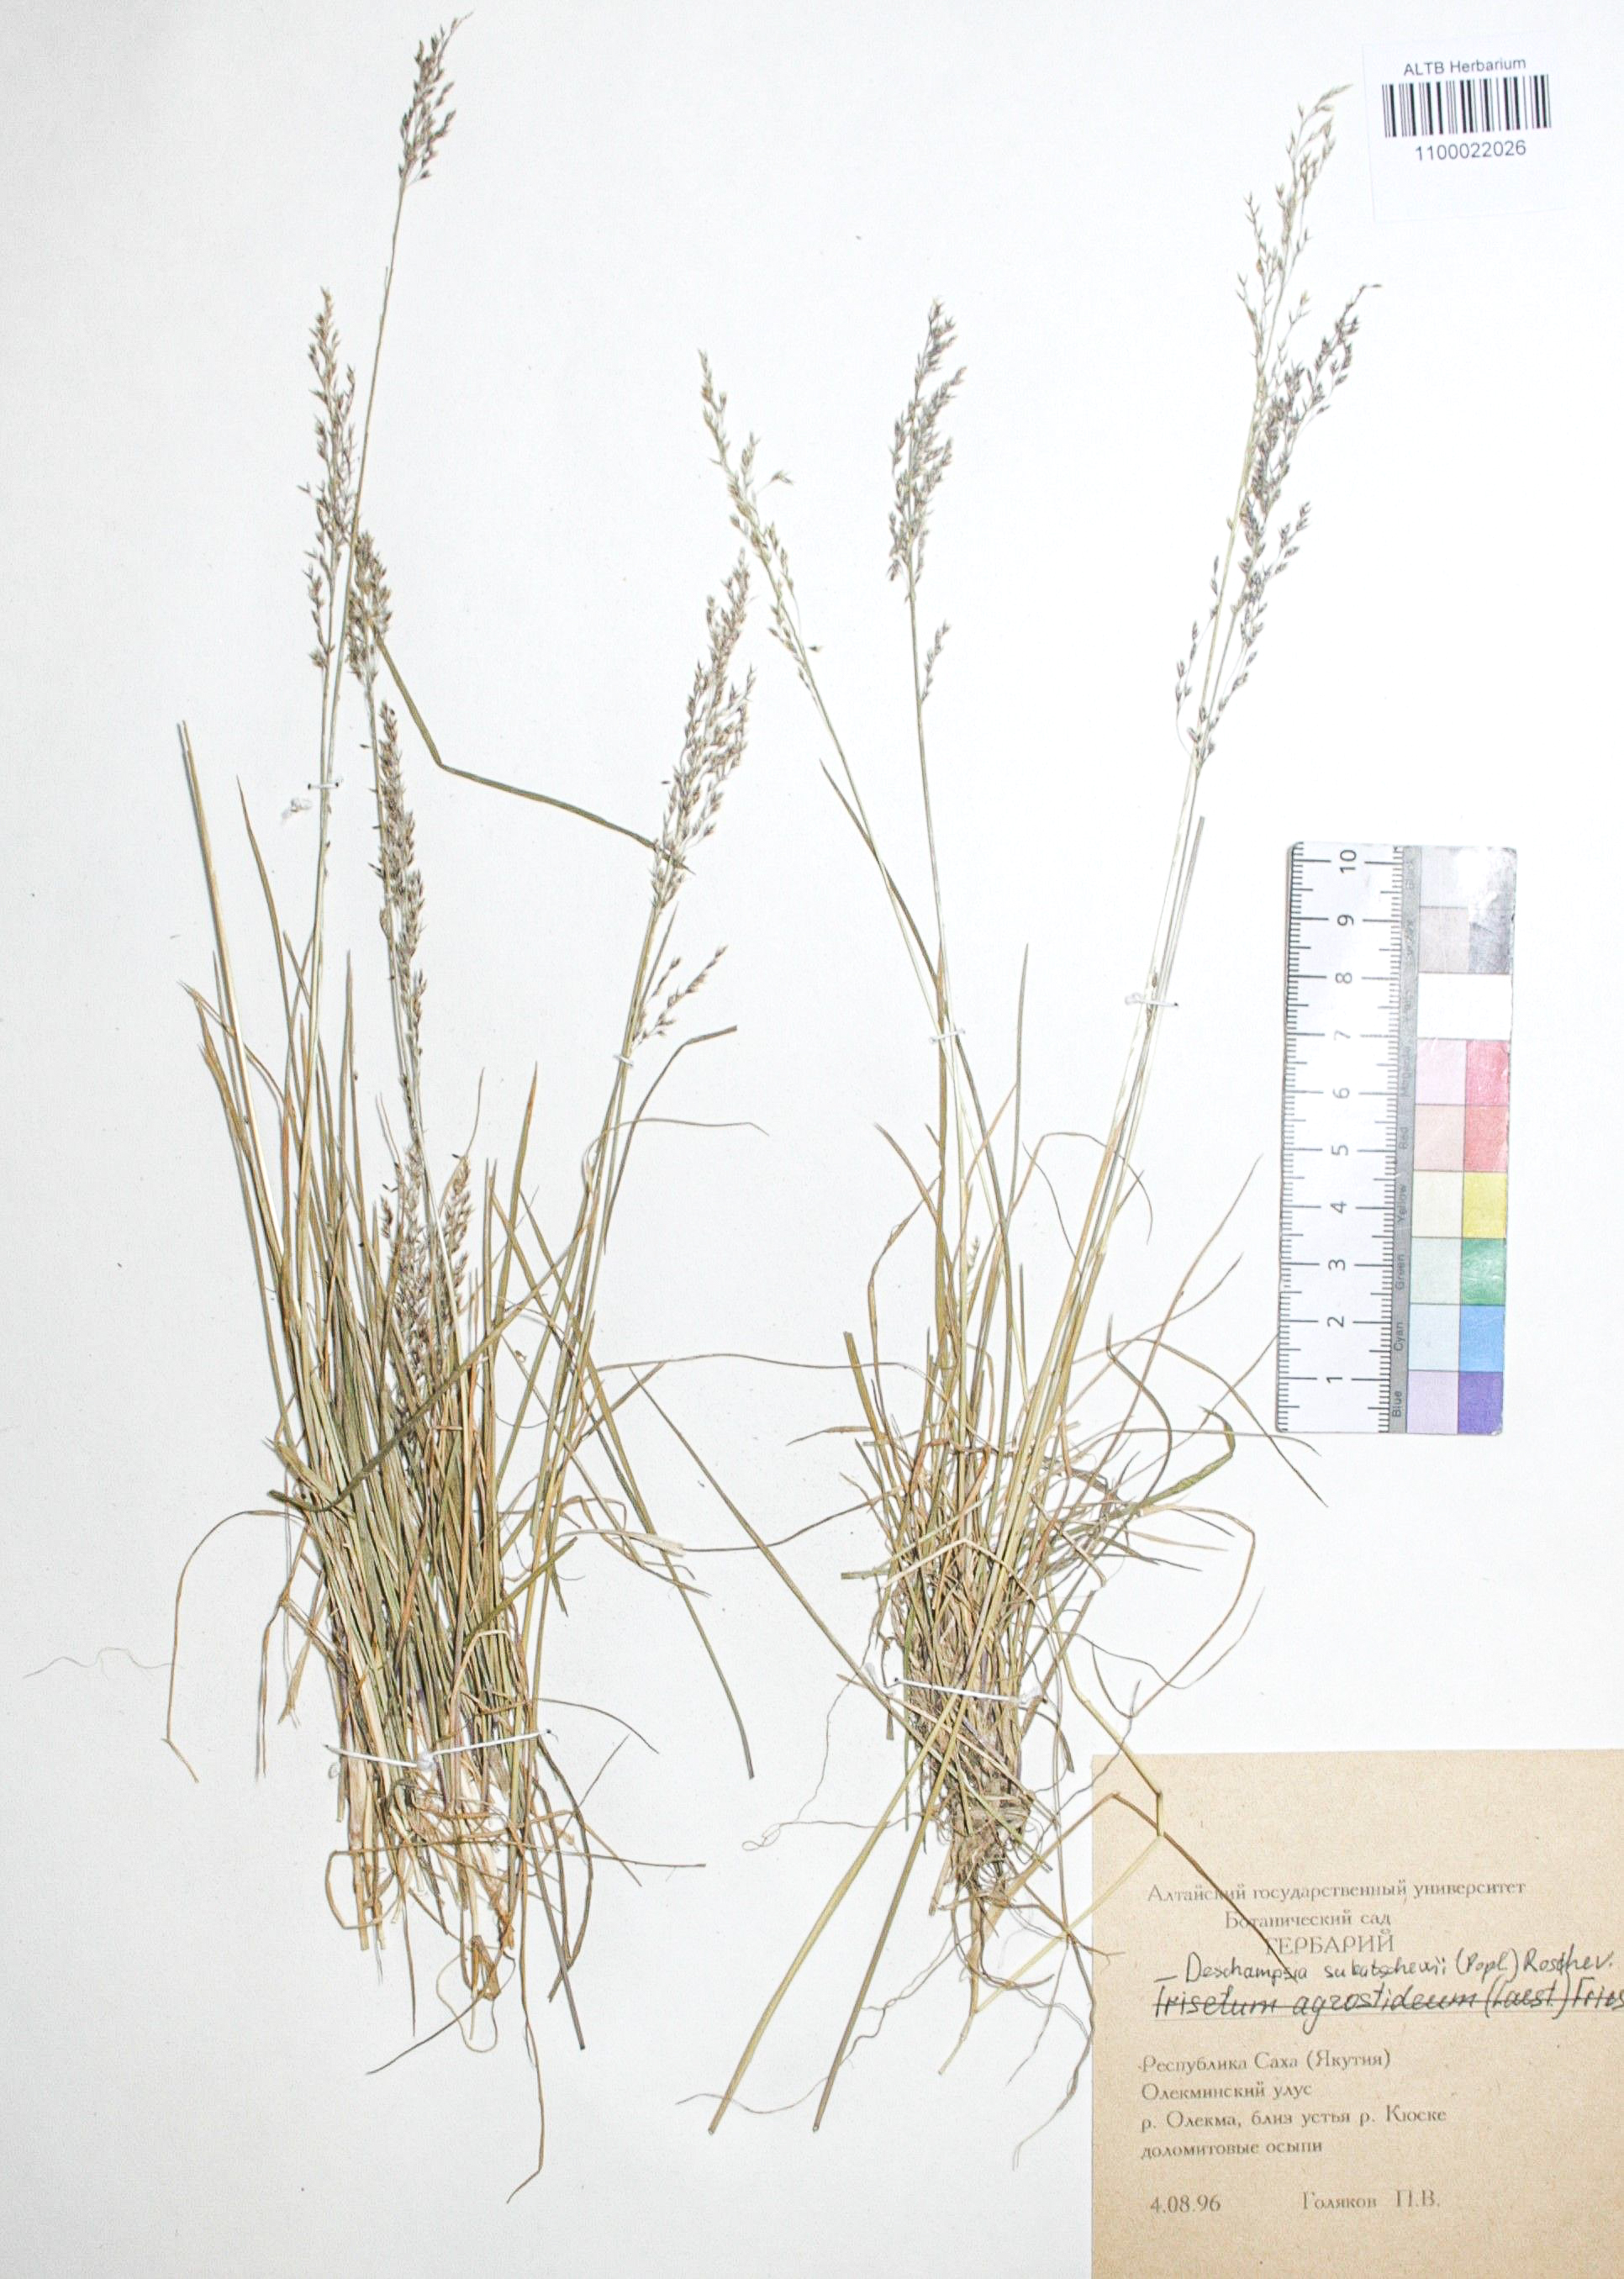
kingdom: Plantae
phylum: Tracheophyta
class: Liliopsida
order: Poales
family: Poaceae
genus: Deschampsia
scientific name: Deschampsia cespitosa
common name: Tufted hair-grass
